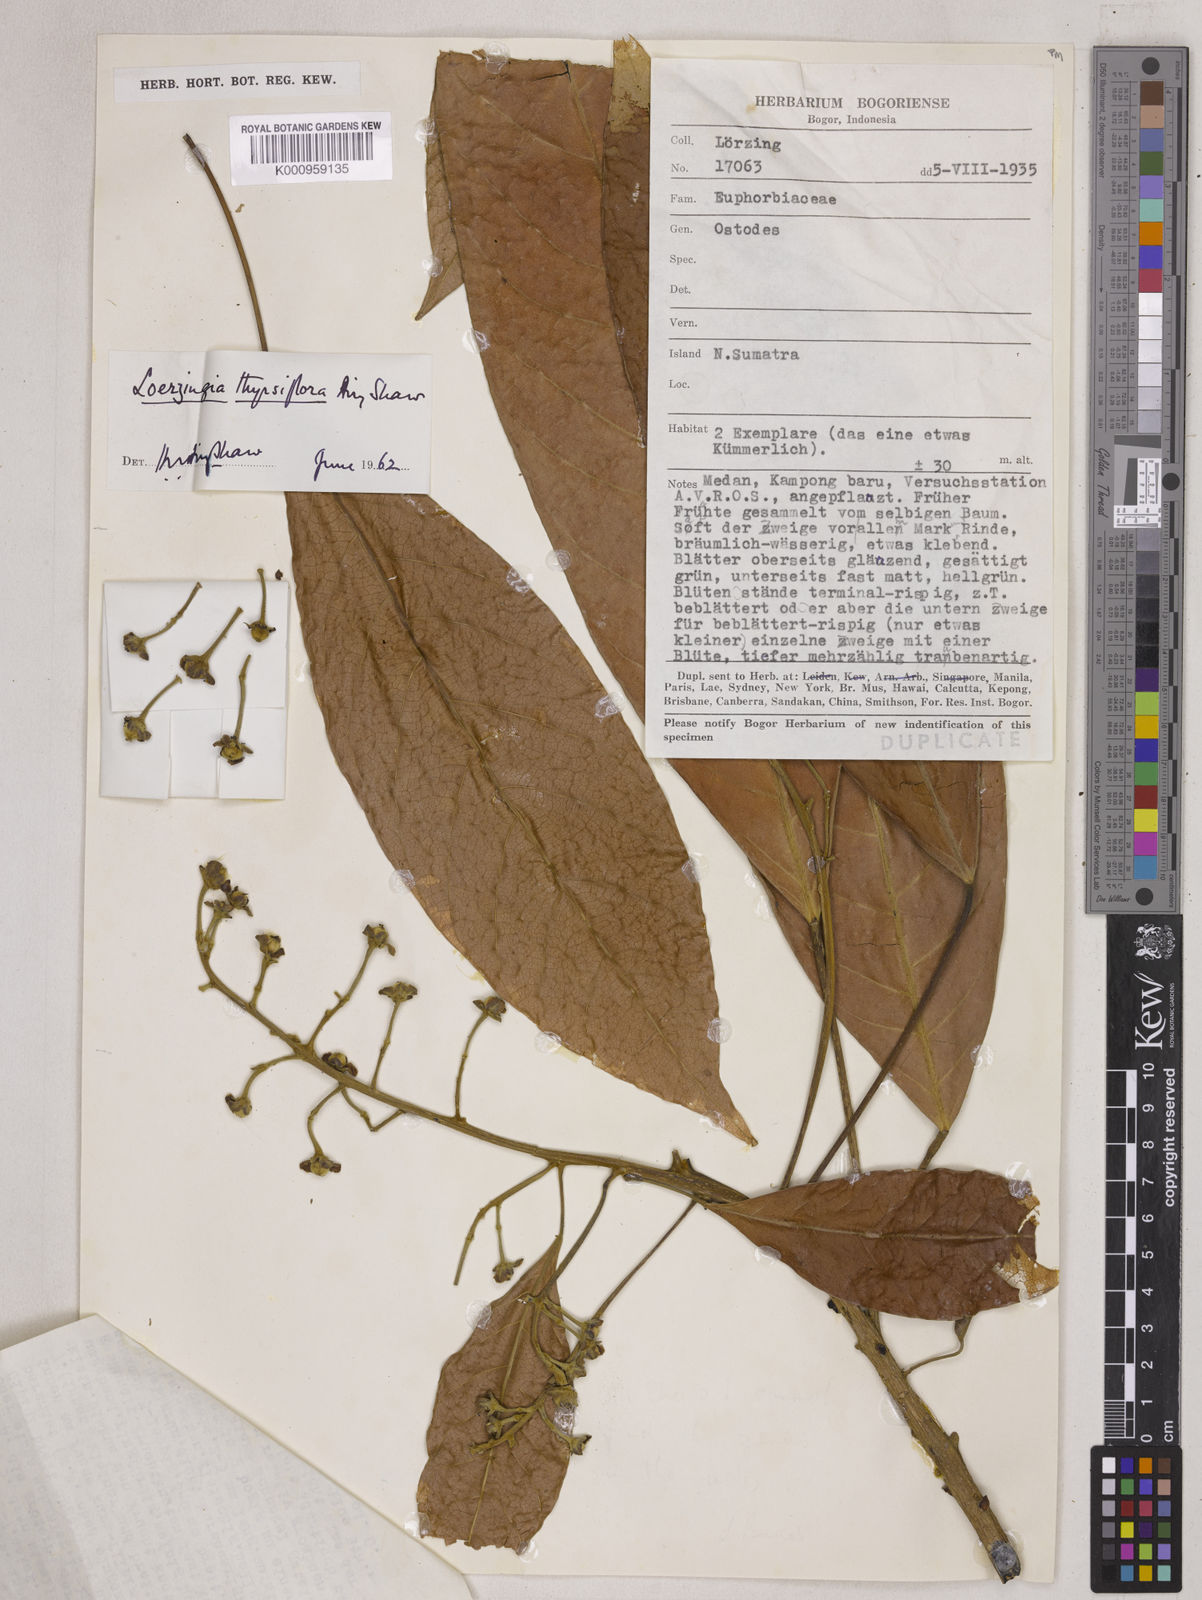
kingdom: Plantae
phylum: Tracheophyta
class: Magnoliopsida
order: Malpighiales
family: Euphorbiaceae
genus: Deutzianthus
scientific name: Deutzianthus thyrsiflorus
